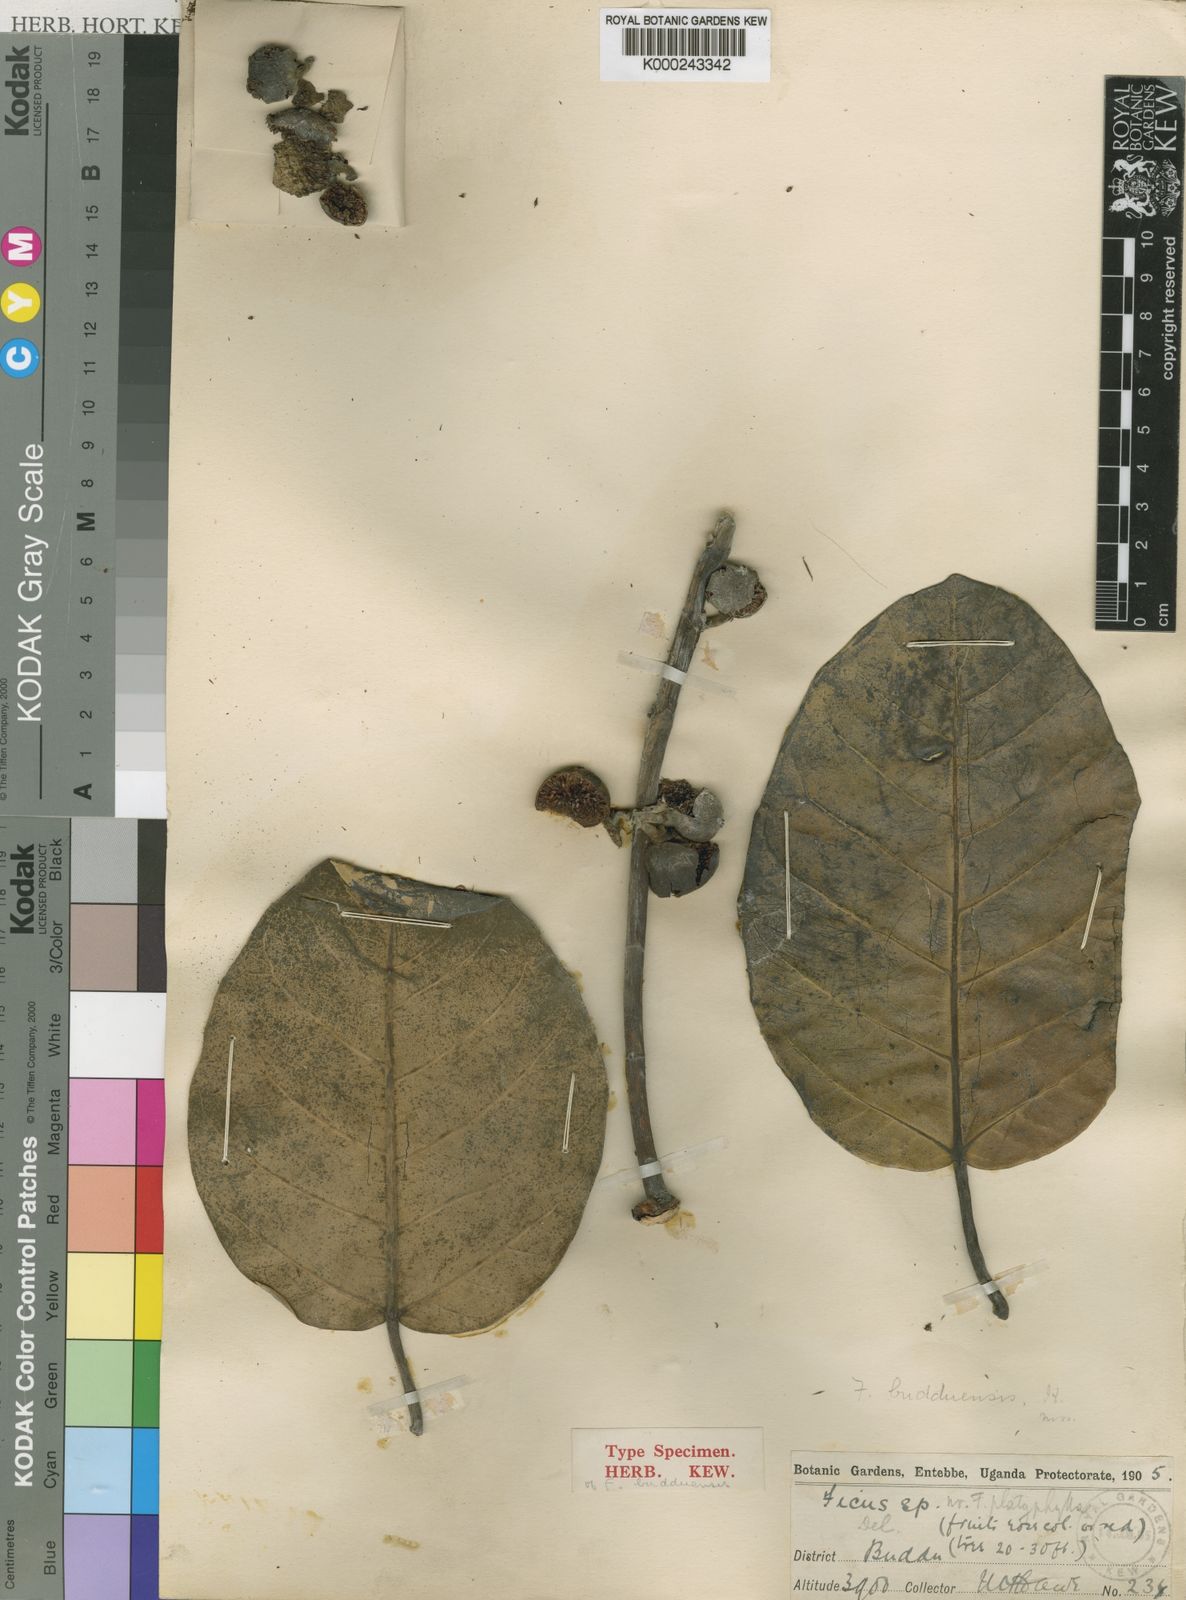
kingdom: Plantae
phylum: Tracheophyta
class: Magnoliopsida
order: Rosales
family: Moraceae
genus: Ficus
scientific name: Ficus trichopoda
